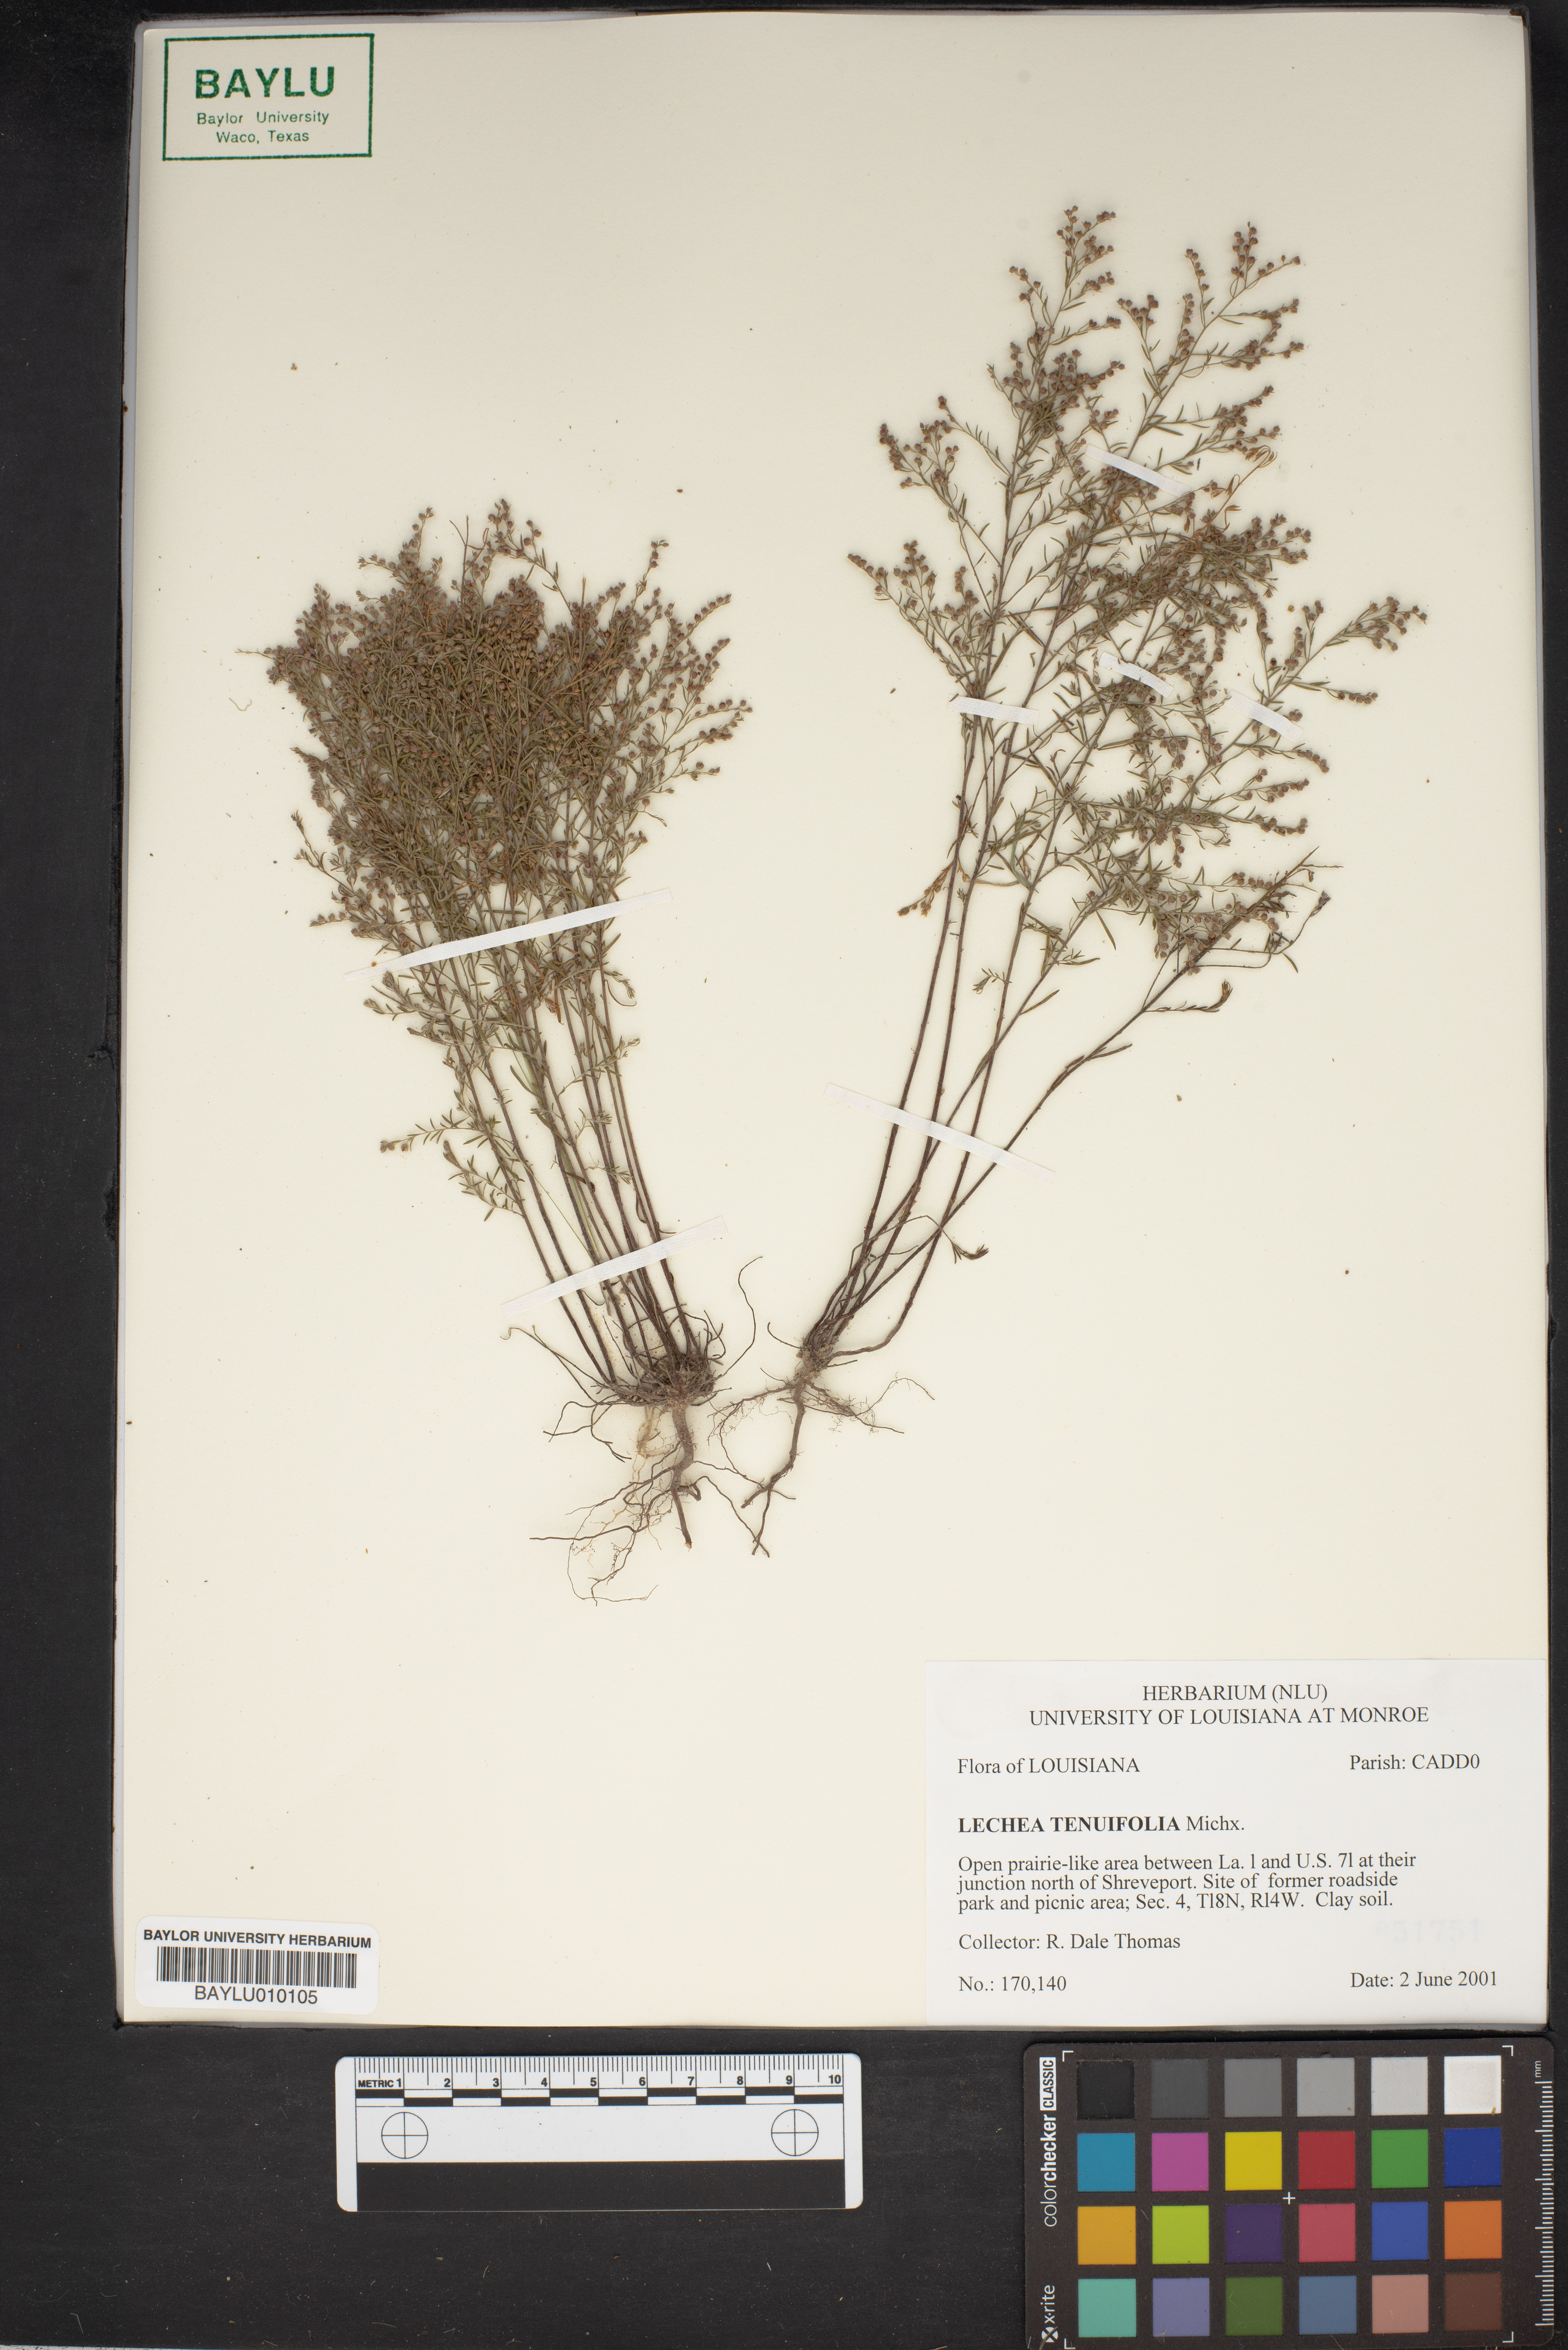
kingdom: Plantae
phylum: Tracheophyta
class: Magnoliopsida
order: Malvales
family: Cistaceae
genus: Lechea
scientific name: Lechea tenuifolia
